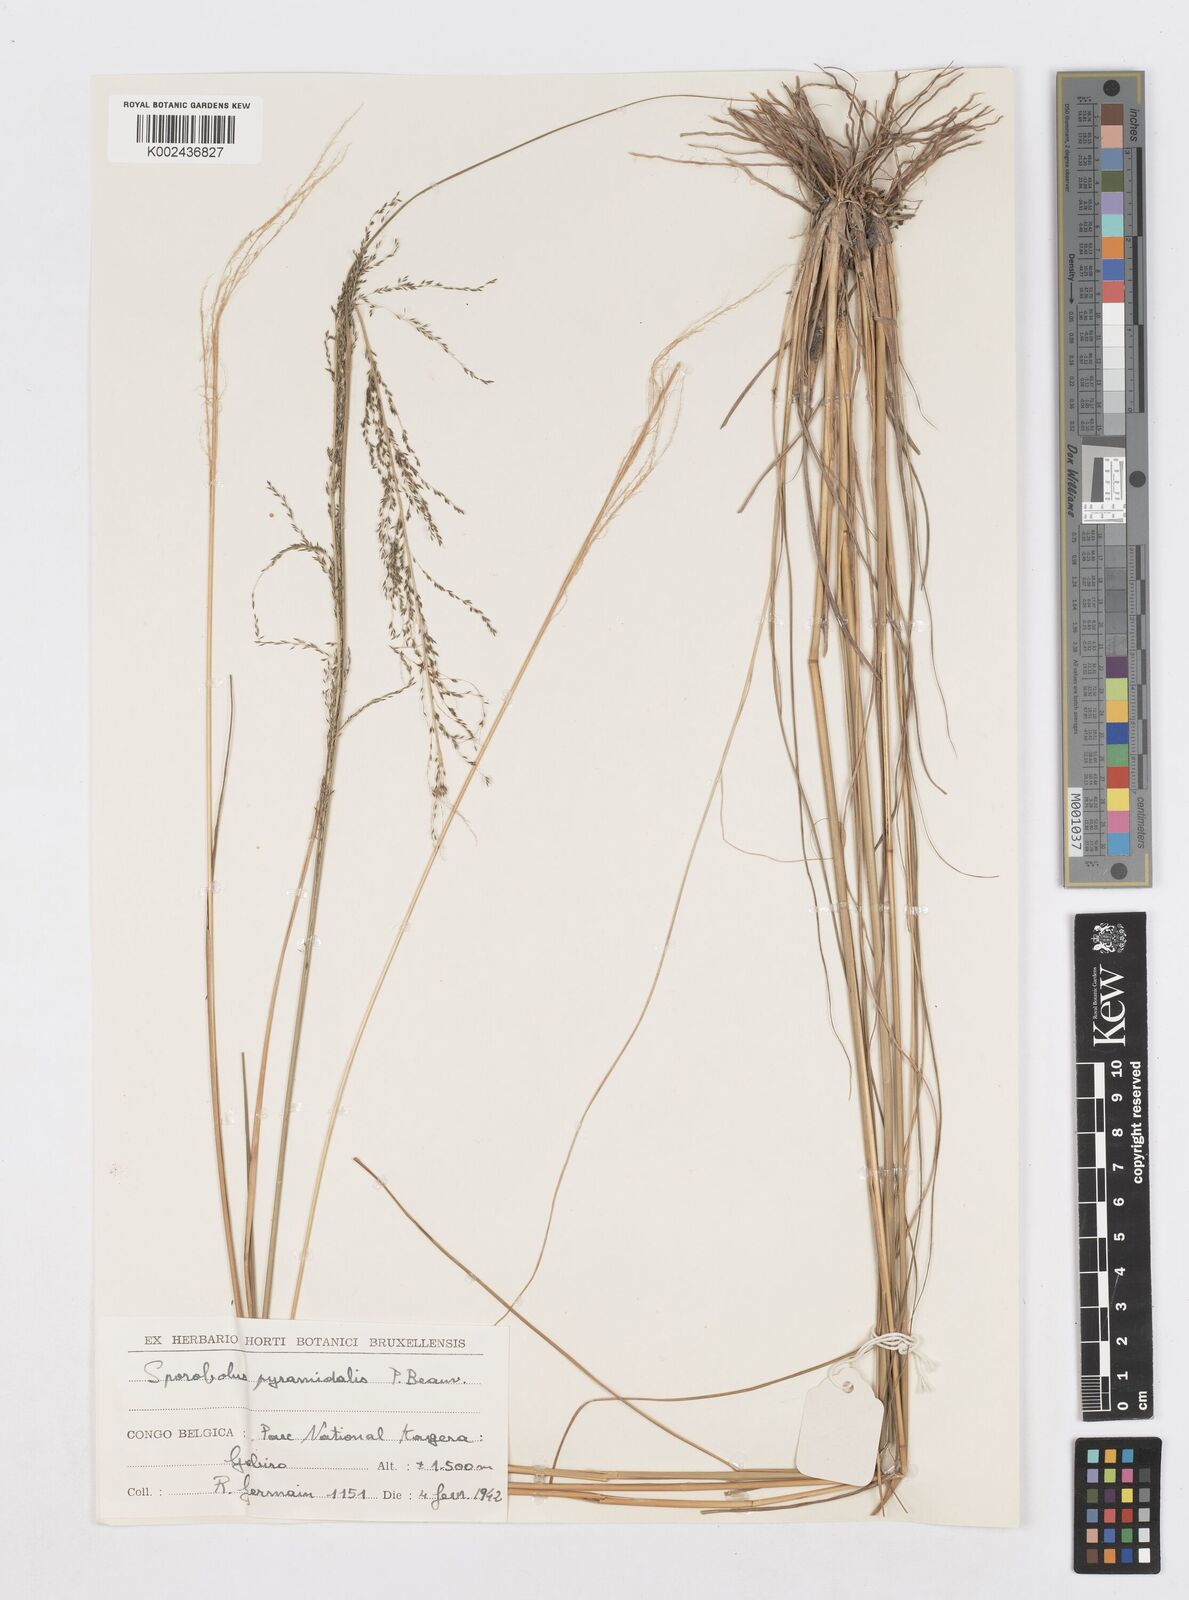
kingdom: Plantae
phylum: Tracheophyta
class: Liliopsida
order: Poales
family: Poaceae
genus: Sporobolus
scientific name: Sporobolus pyramidalis
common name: West indian dropseed
